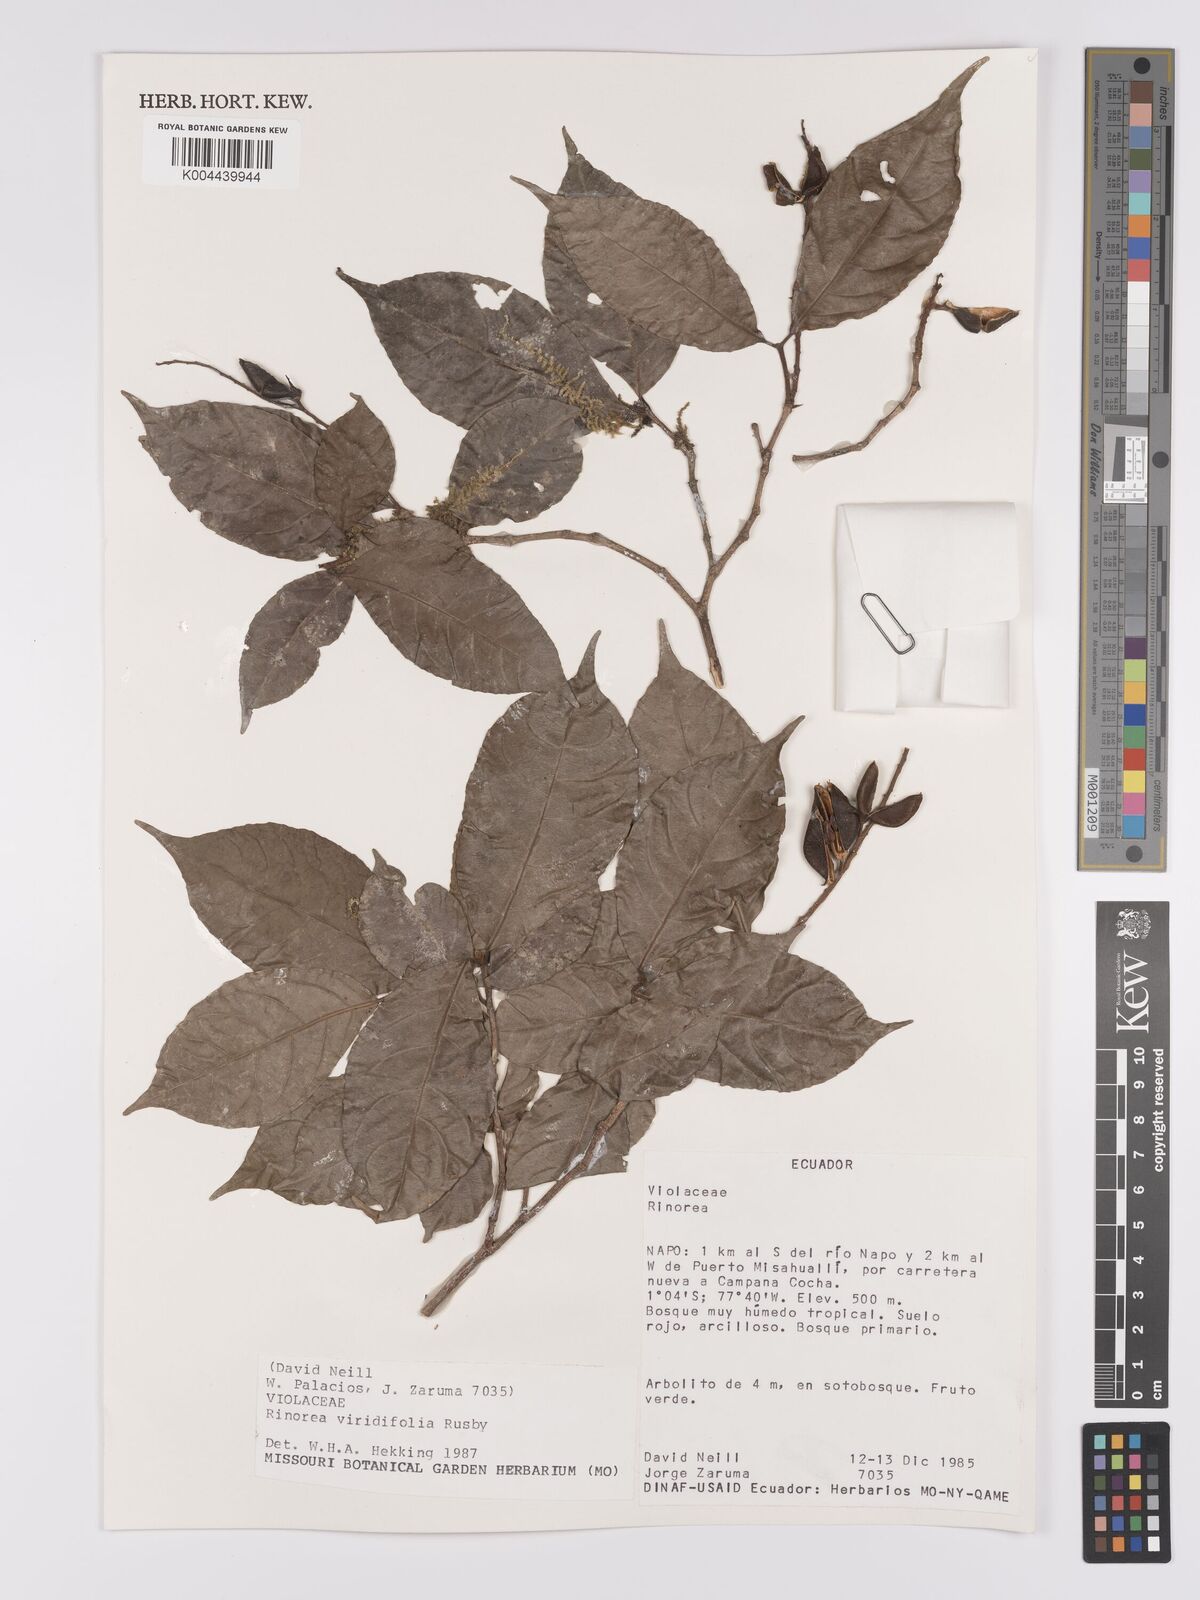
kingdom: Plantae
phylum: Tracheophyta
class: Magnoliopsida
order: Malpighiales
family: Violaceae
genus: Rinorea
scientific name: Rinorea viridifolia
